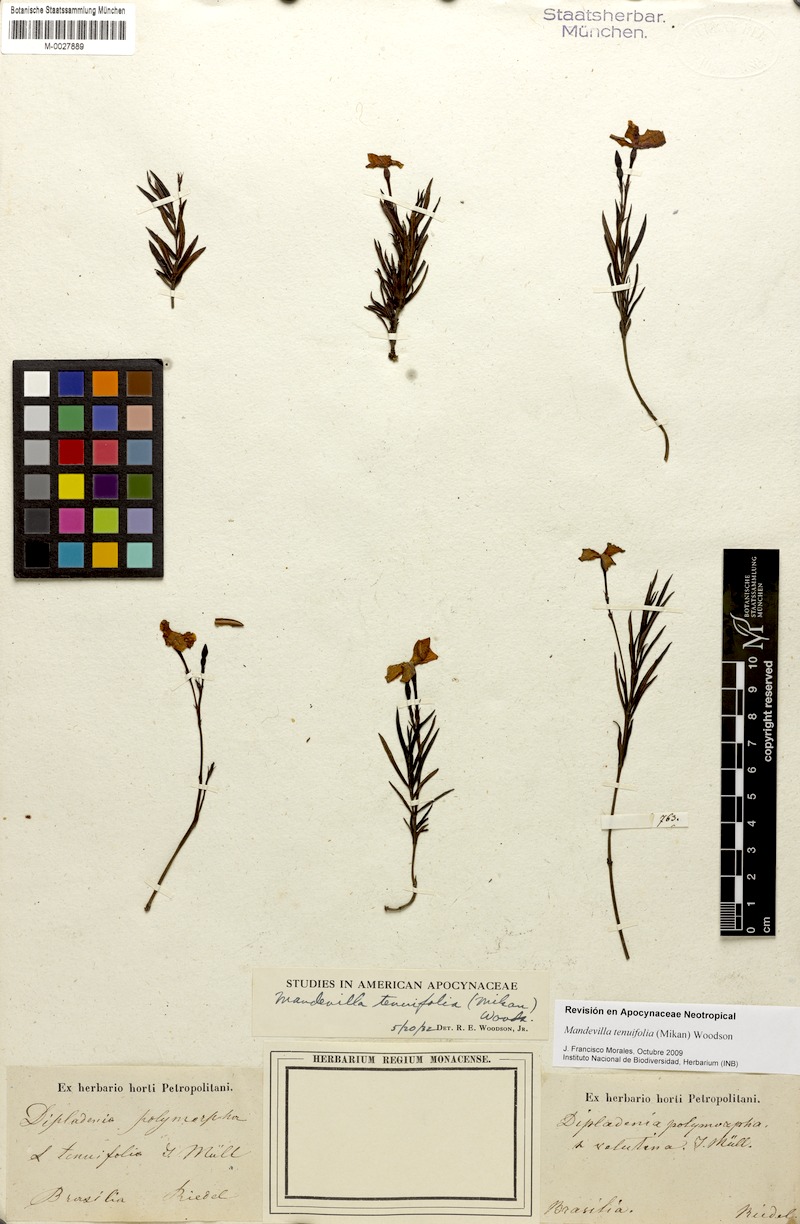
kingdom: Plantae
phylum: Tracheophyta
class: Magnoliopsida
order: Gentianales
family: Apocynaceae
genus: Mandevilla
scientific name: Mandevilla tenuifolia
